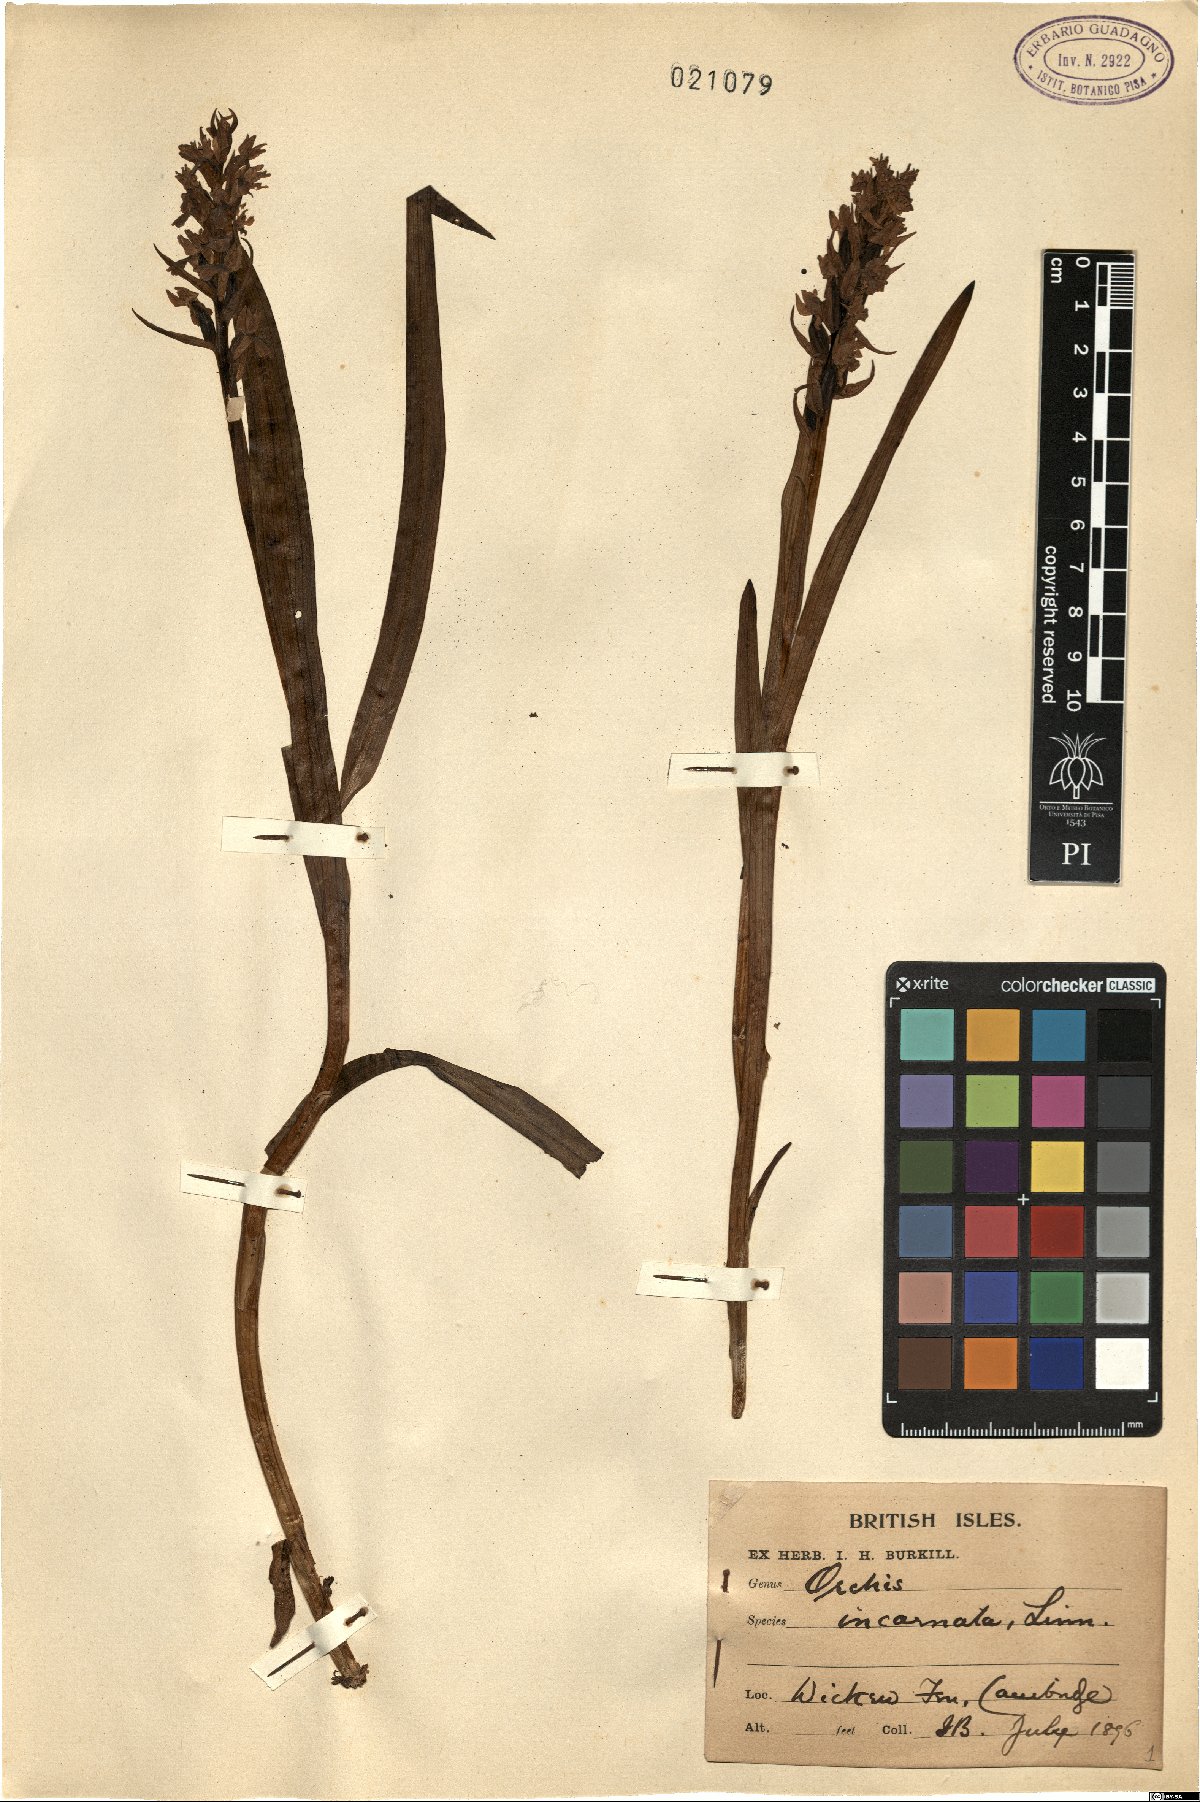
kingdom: Plantae
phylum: Tracheophyta
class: Liliopsida
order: Asparagales
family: Orchidaceae
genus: Dactylorhiza
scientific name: Dactylorhiza incarnata
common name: Early marsh-orchid
